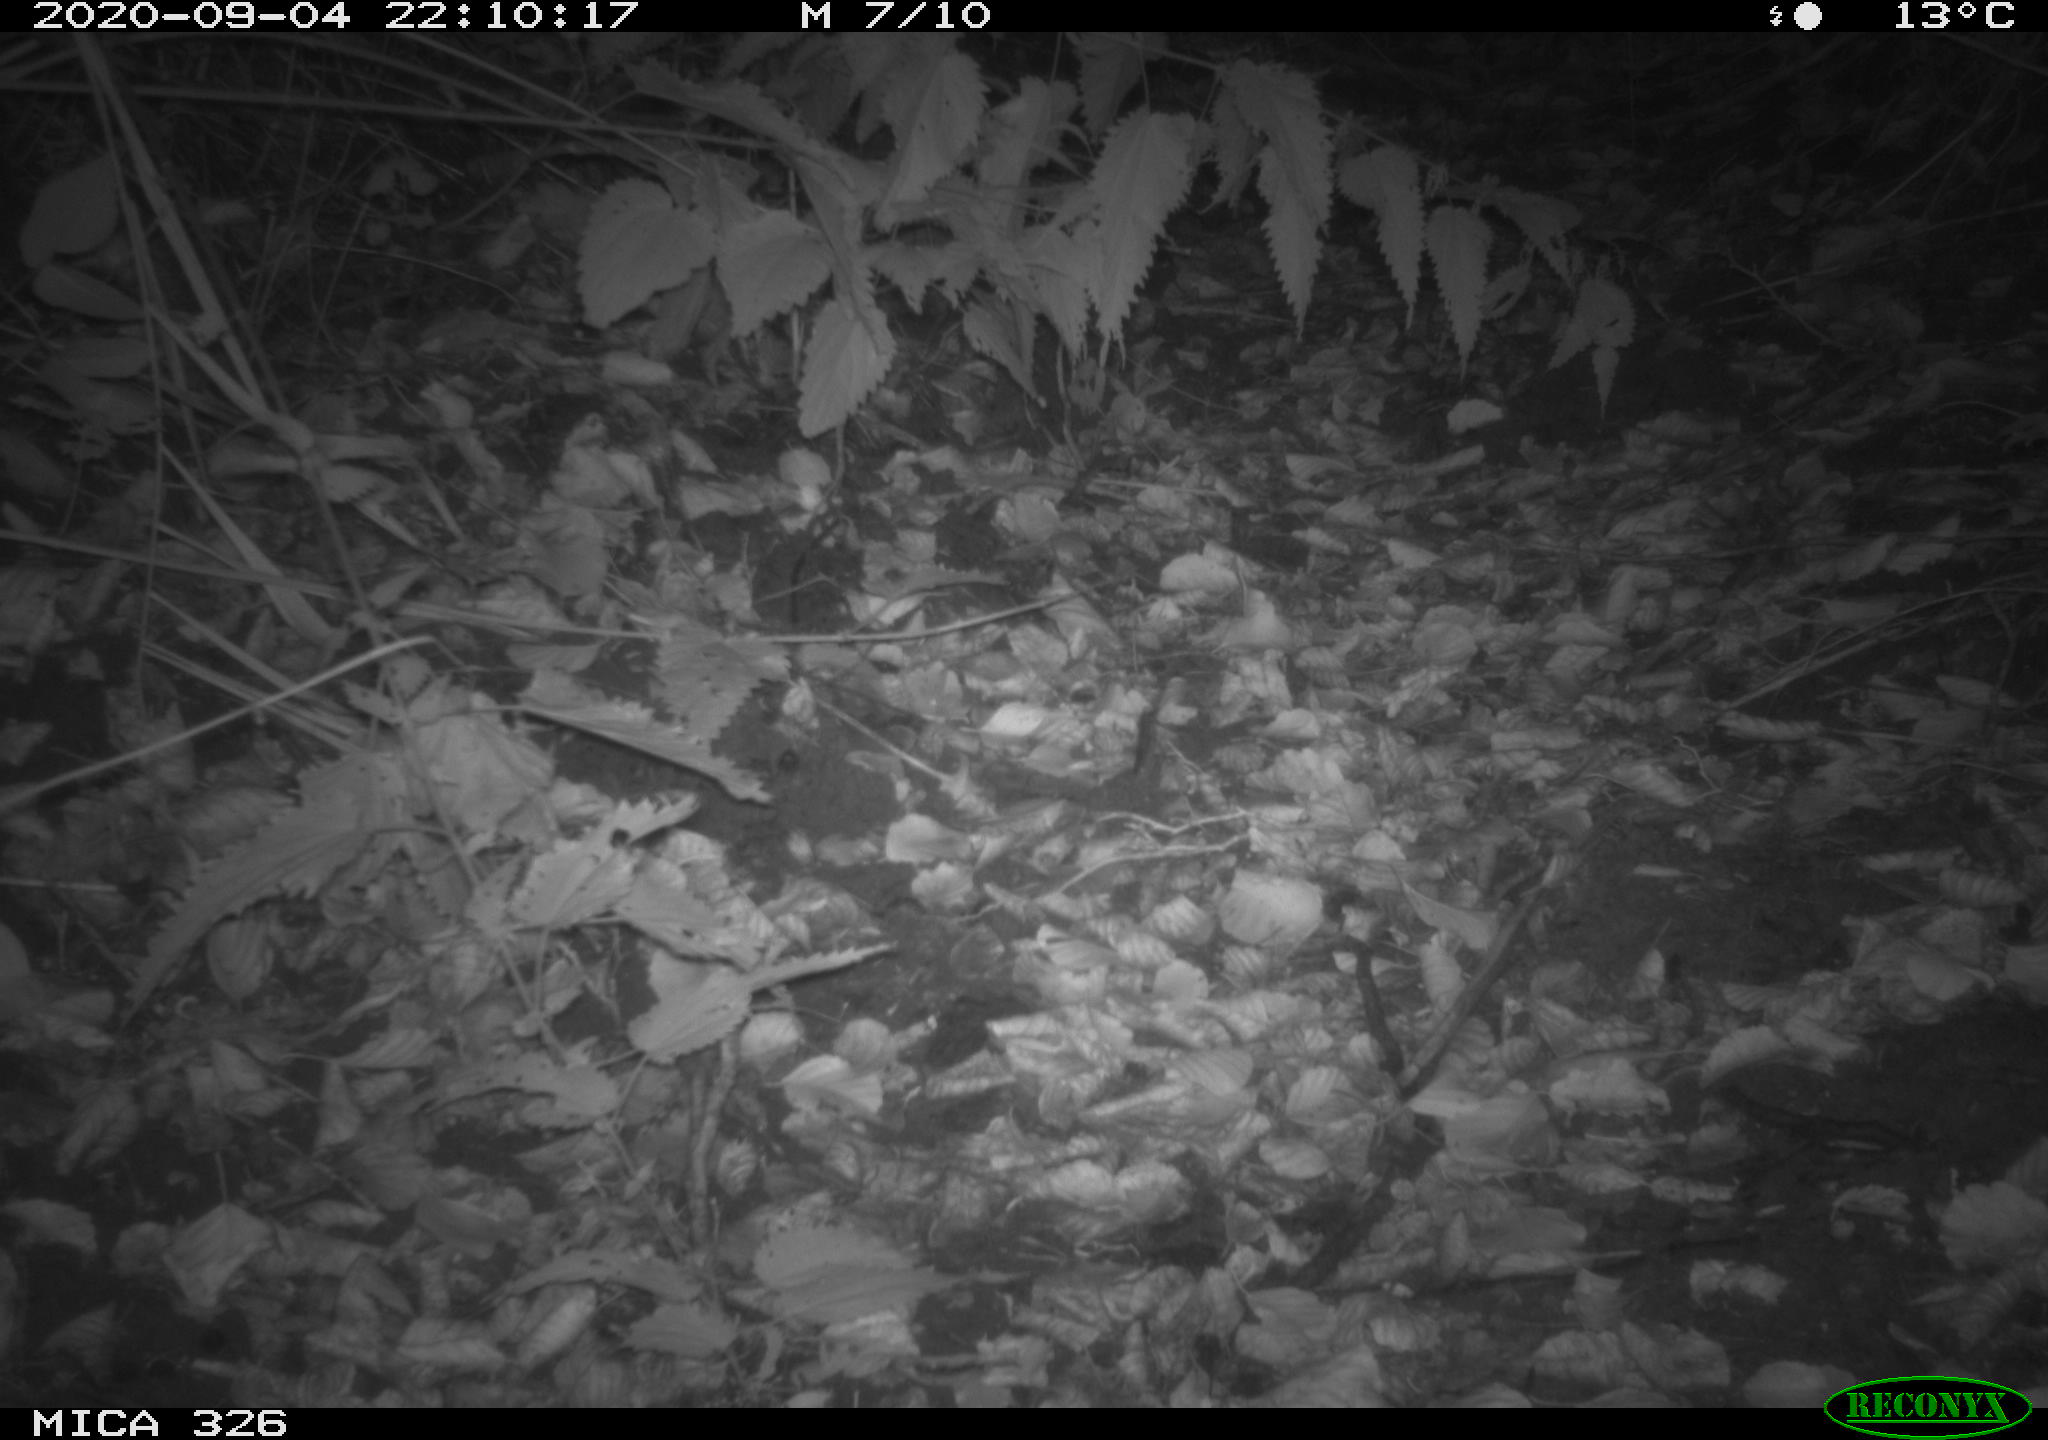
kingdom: Animalia
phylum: Chordata
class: Mammalia
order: Carnivora
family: Mustelidae
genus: Martes
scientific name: Martes foina
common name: Beech marten
